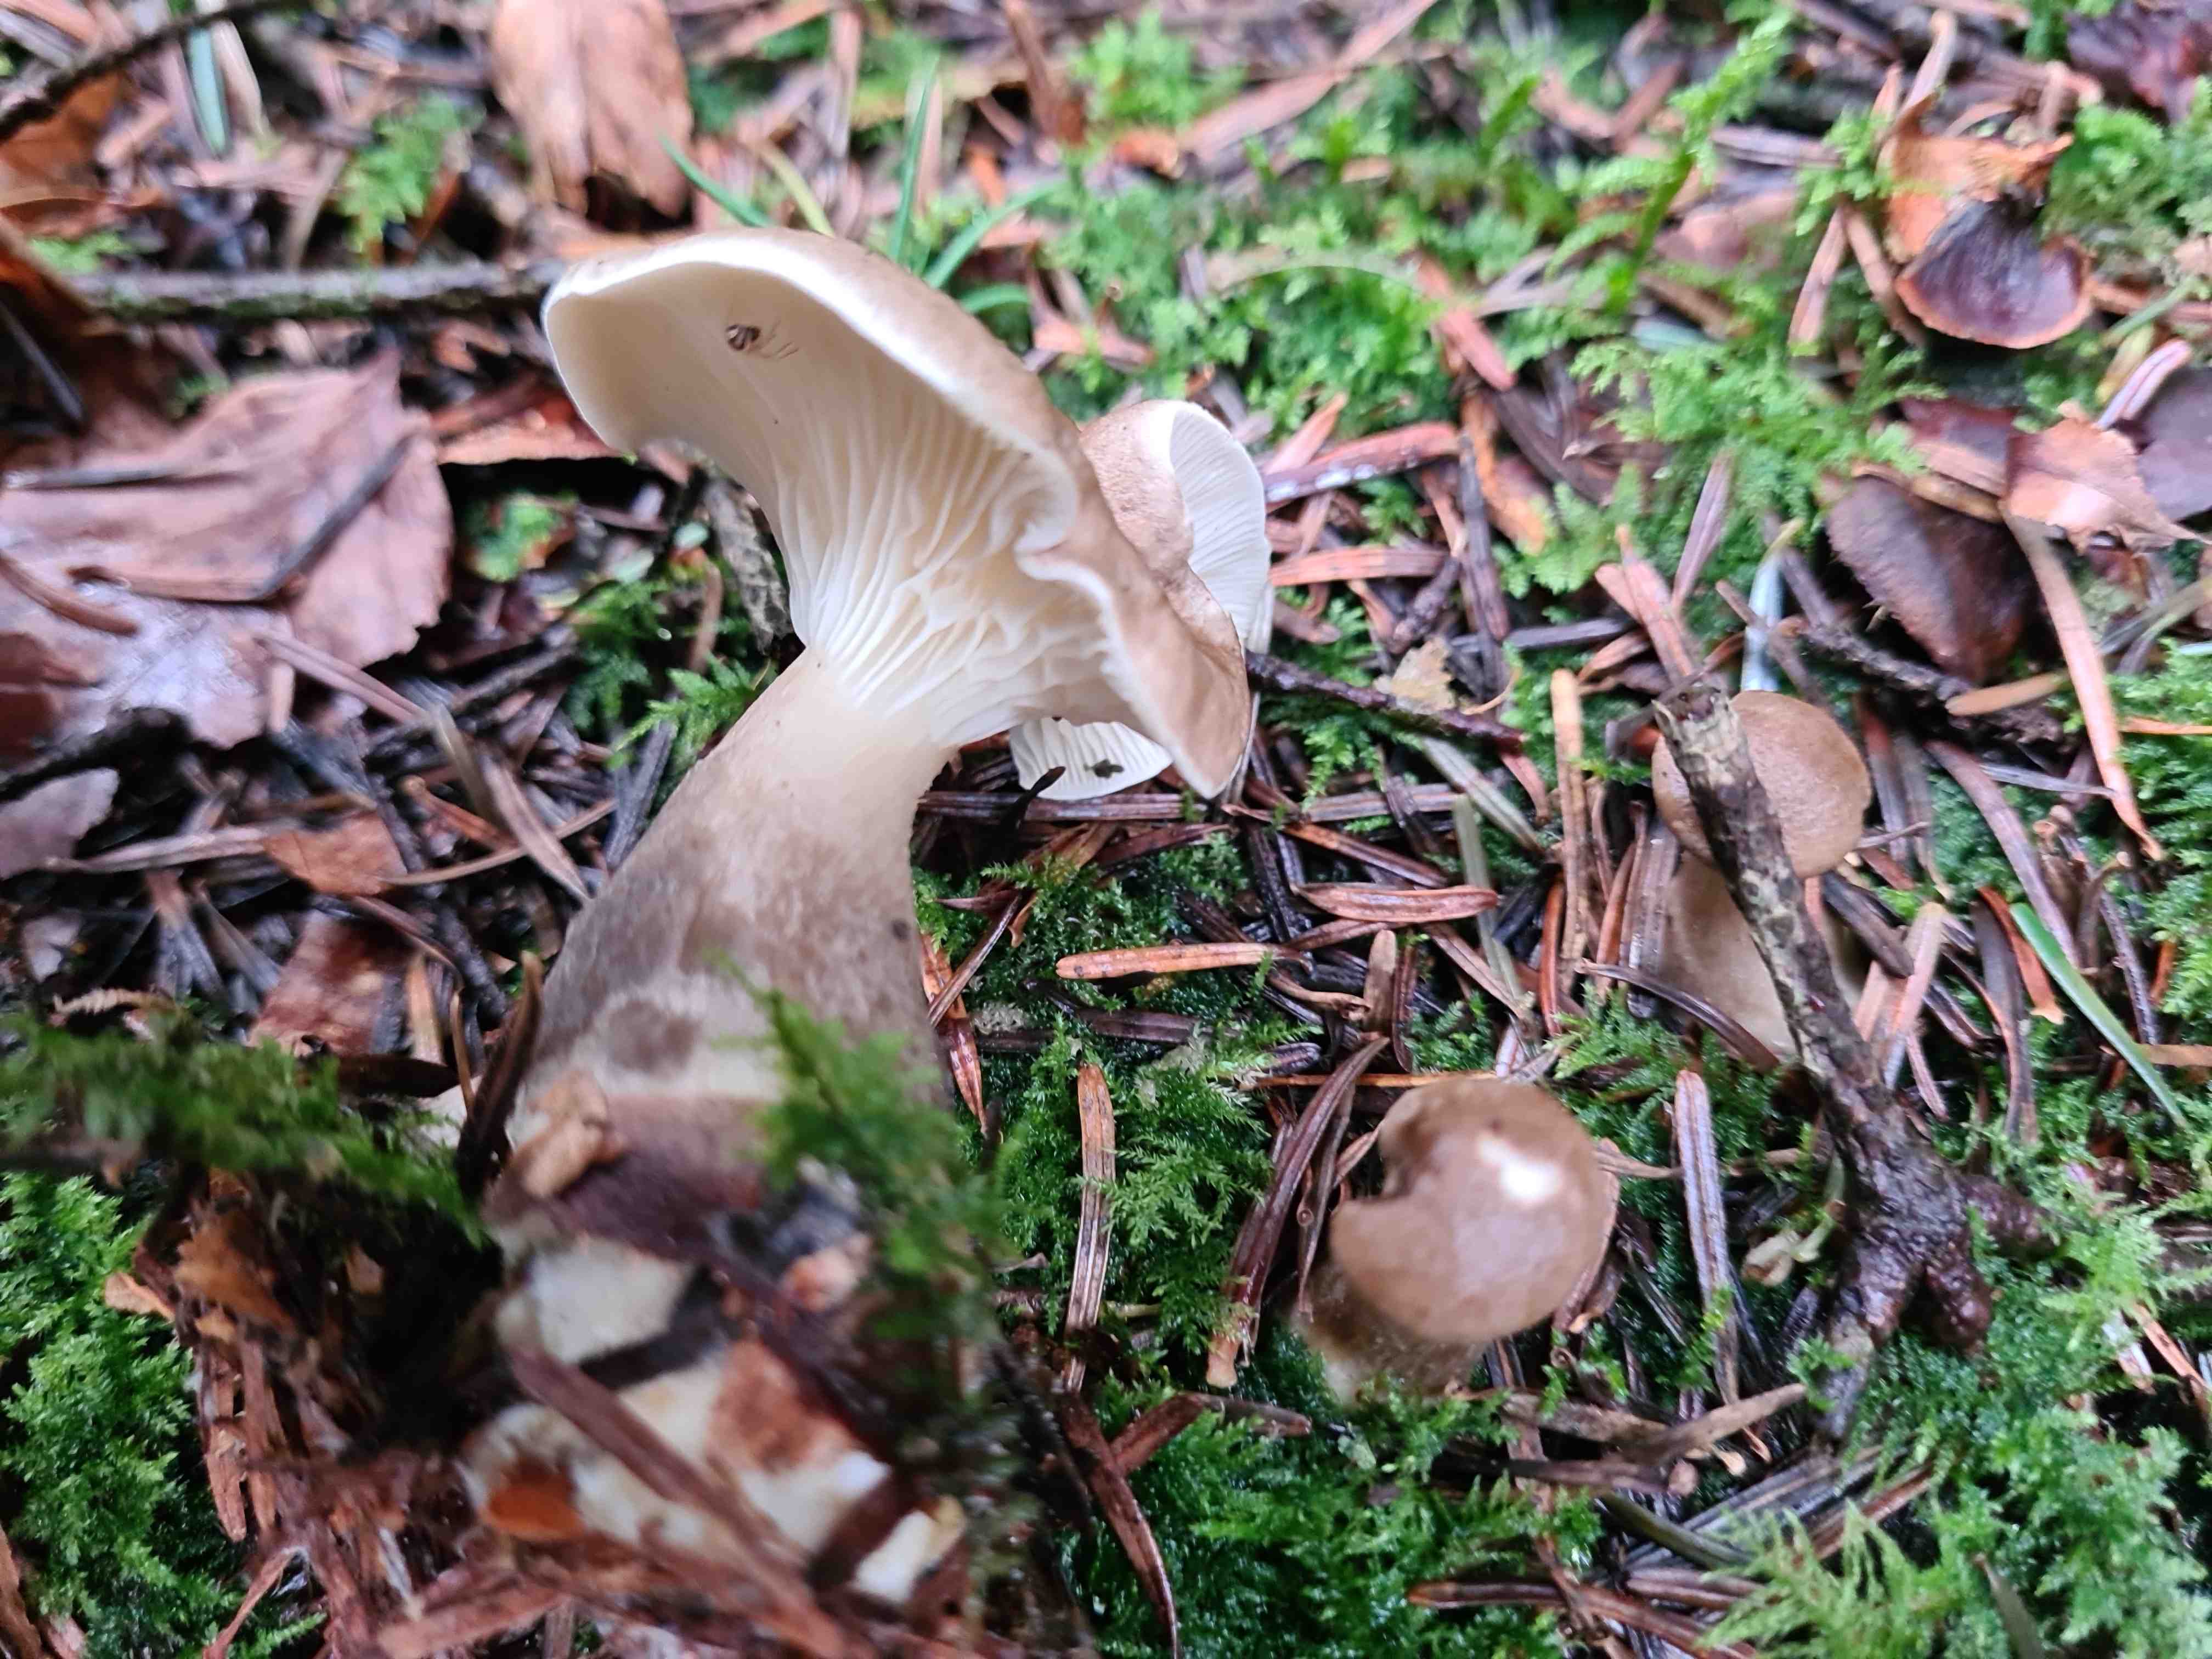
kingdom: Fungi
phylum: Basidiomycota
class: Agaricomycetes
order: Agaricales
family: Hygrophoraceae
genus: Ampulloclitocybe
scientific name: Ampulloclitocybe clavipes
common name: køllefod
